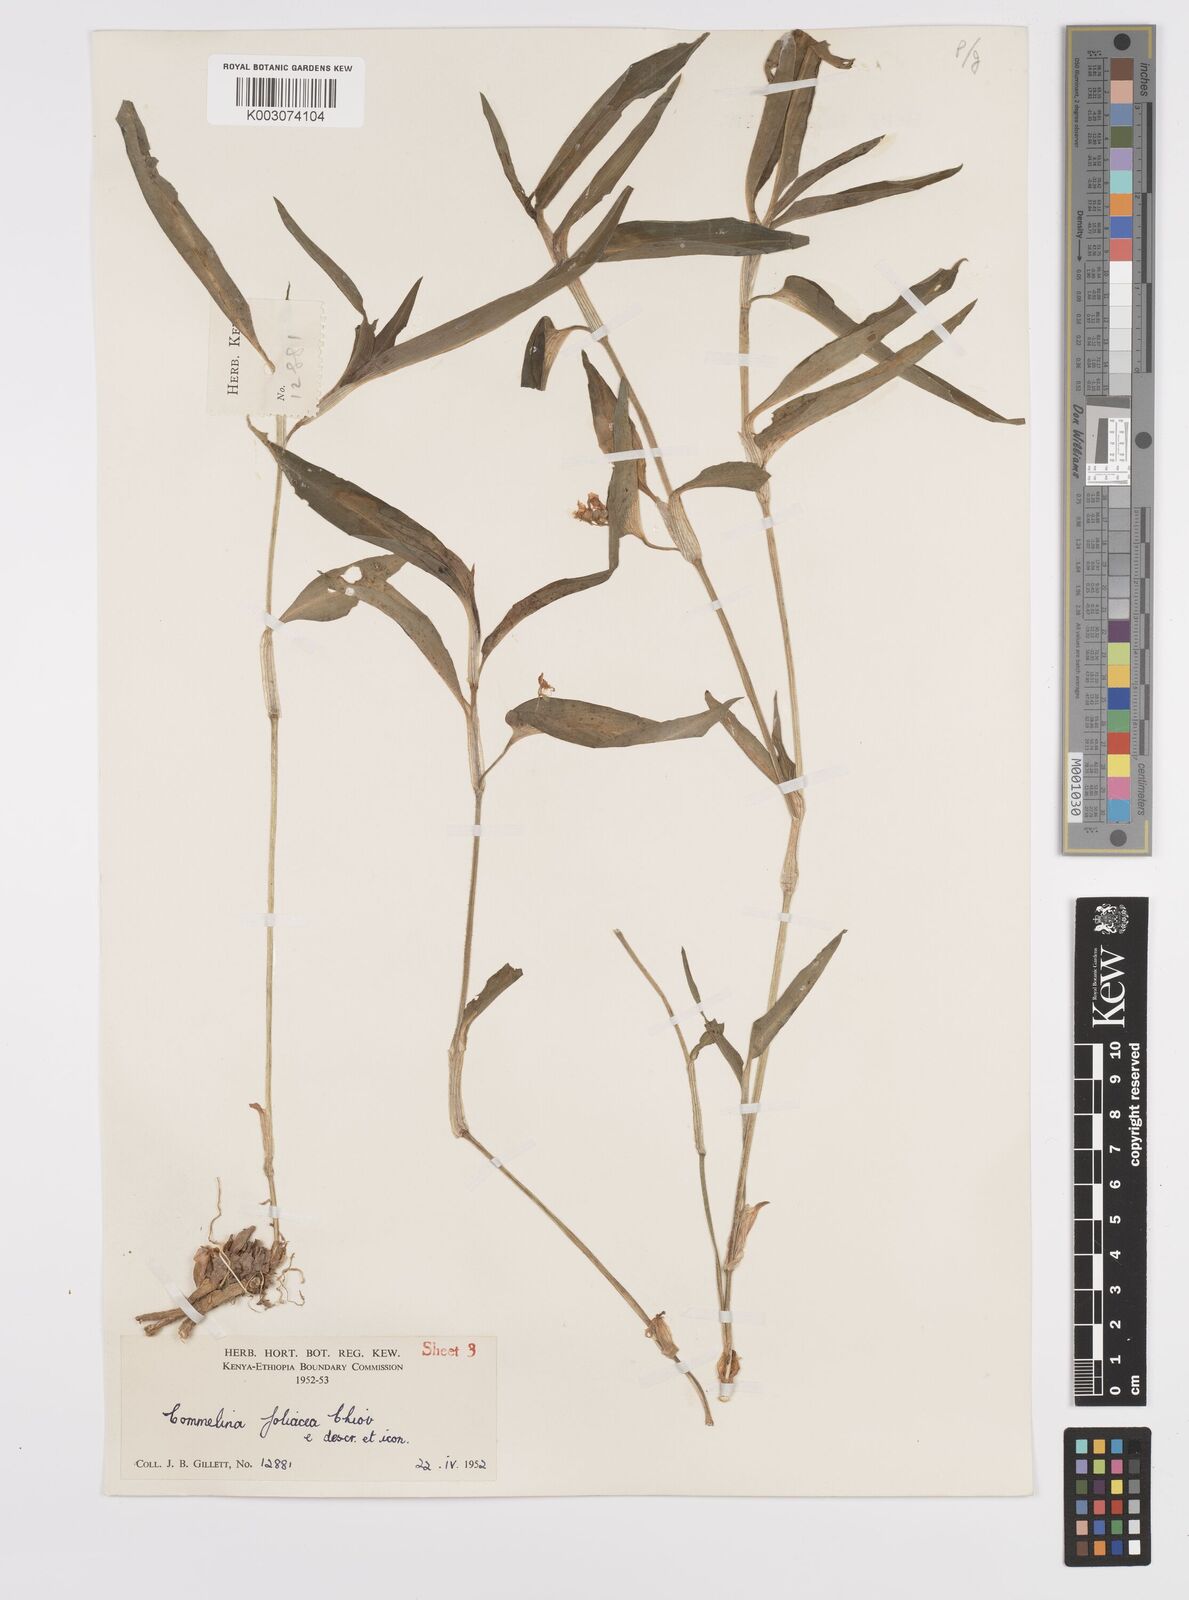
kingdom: Plantae
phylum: Tracheophyta
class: Liliopsida
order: Commelinales
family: Commelinaceae
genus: Commelina
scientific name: Commelina foliacea
